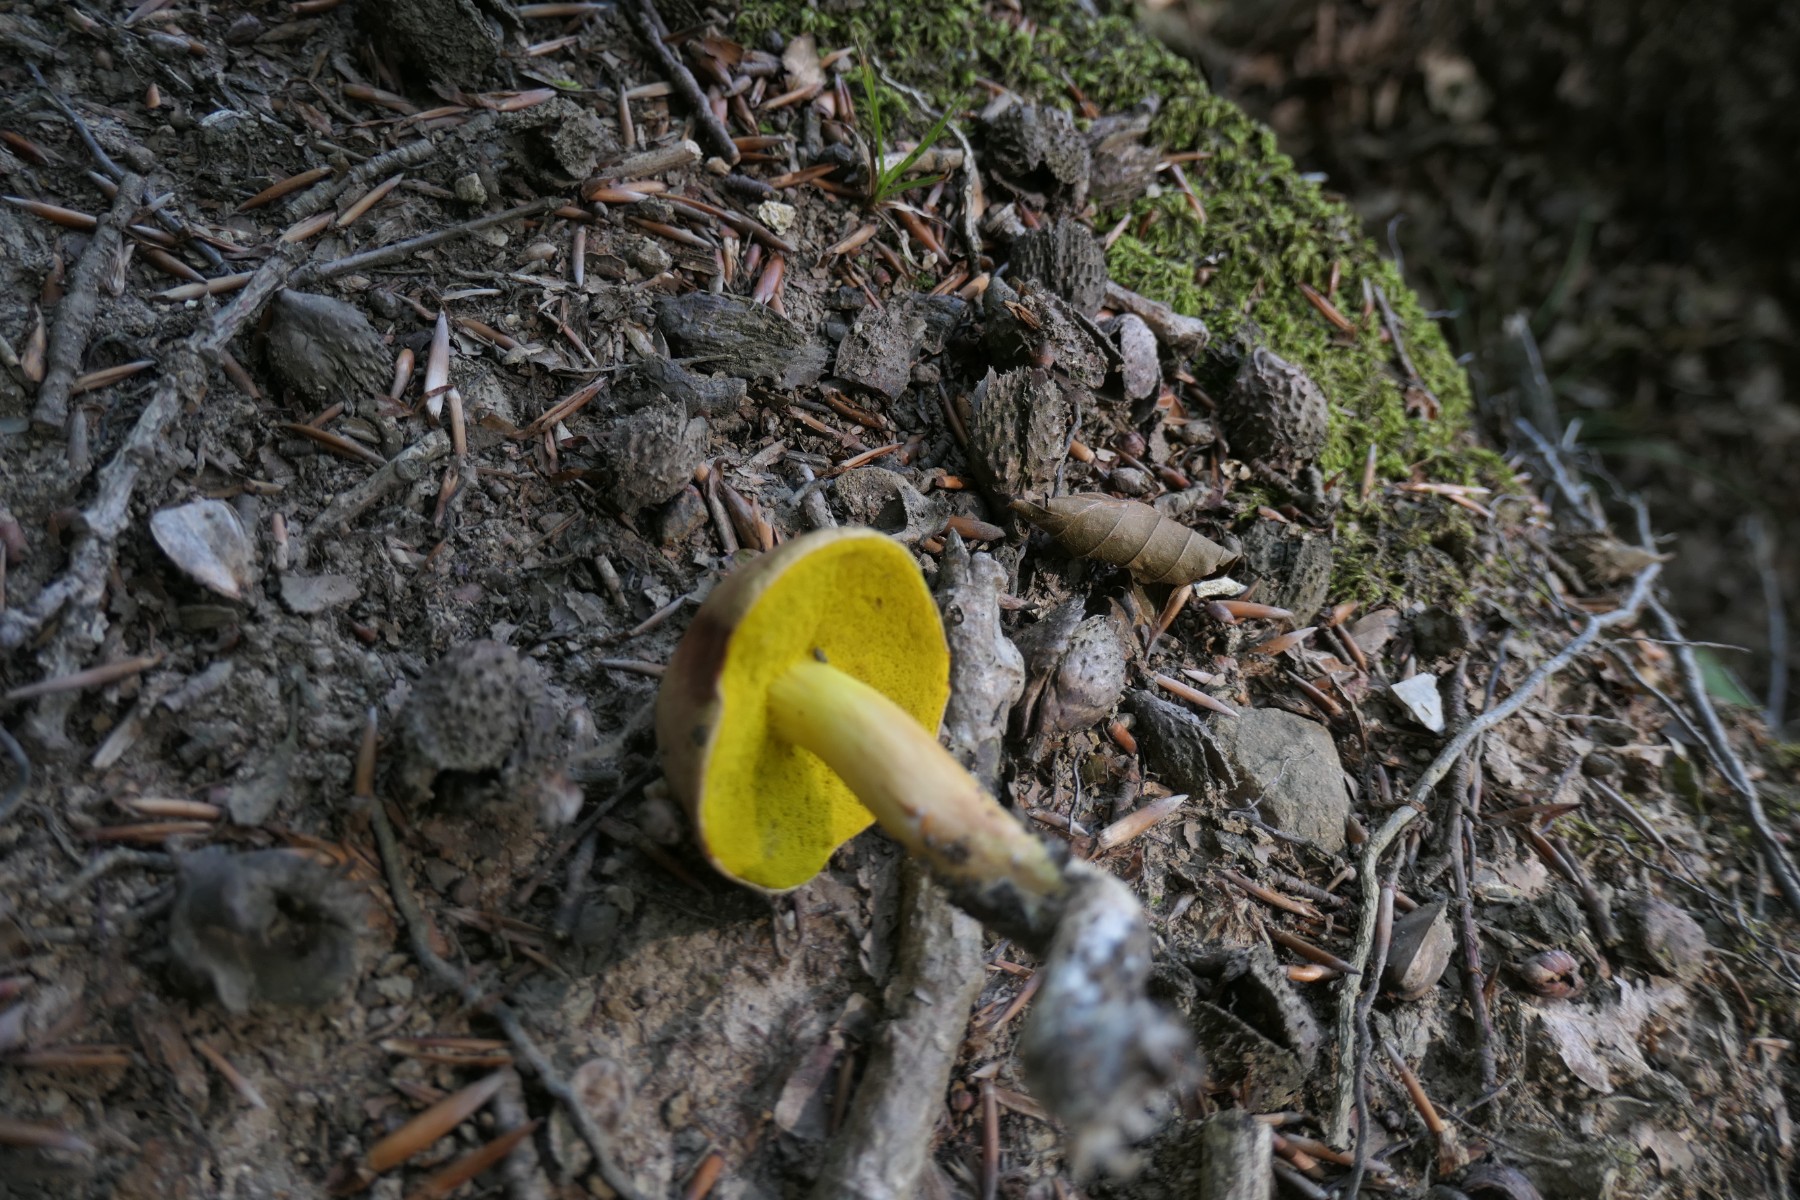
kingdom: Fungi
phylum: Basidiomycota
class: Agaricomycetes
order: Boletales
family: Boletaceae
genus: Aureoboletus
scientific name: Aureoboletus gentilis
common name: guldrørhat
